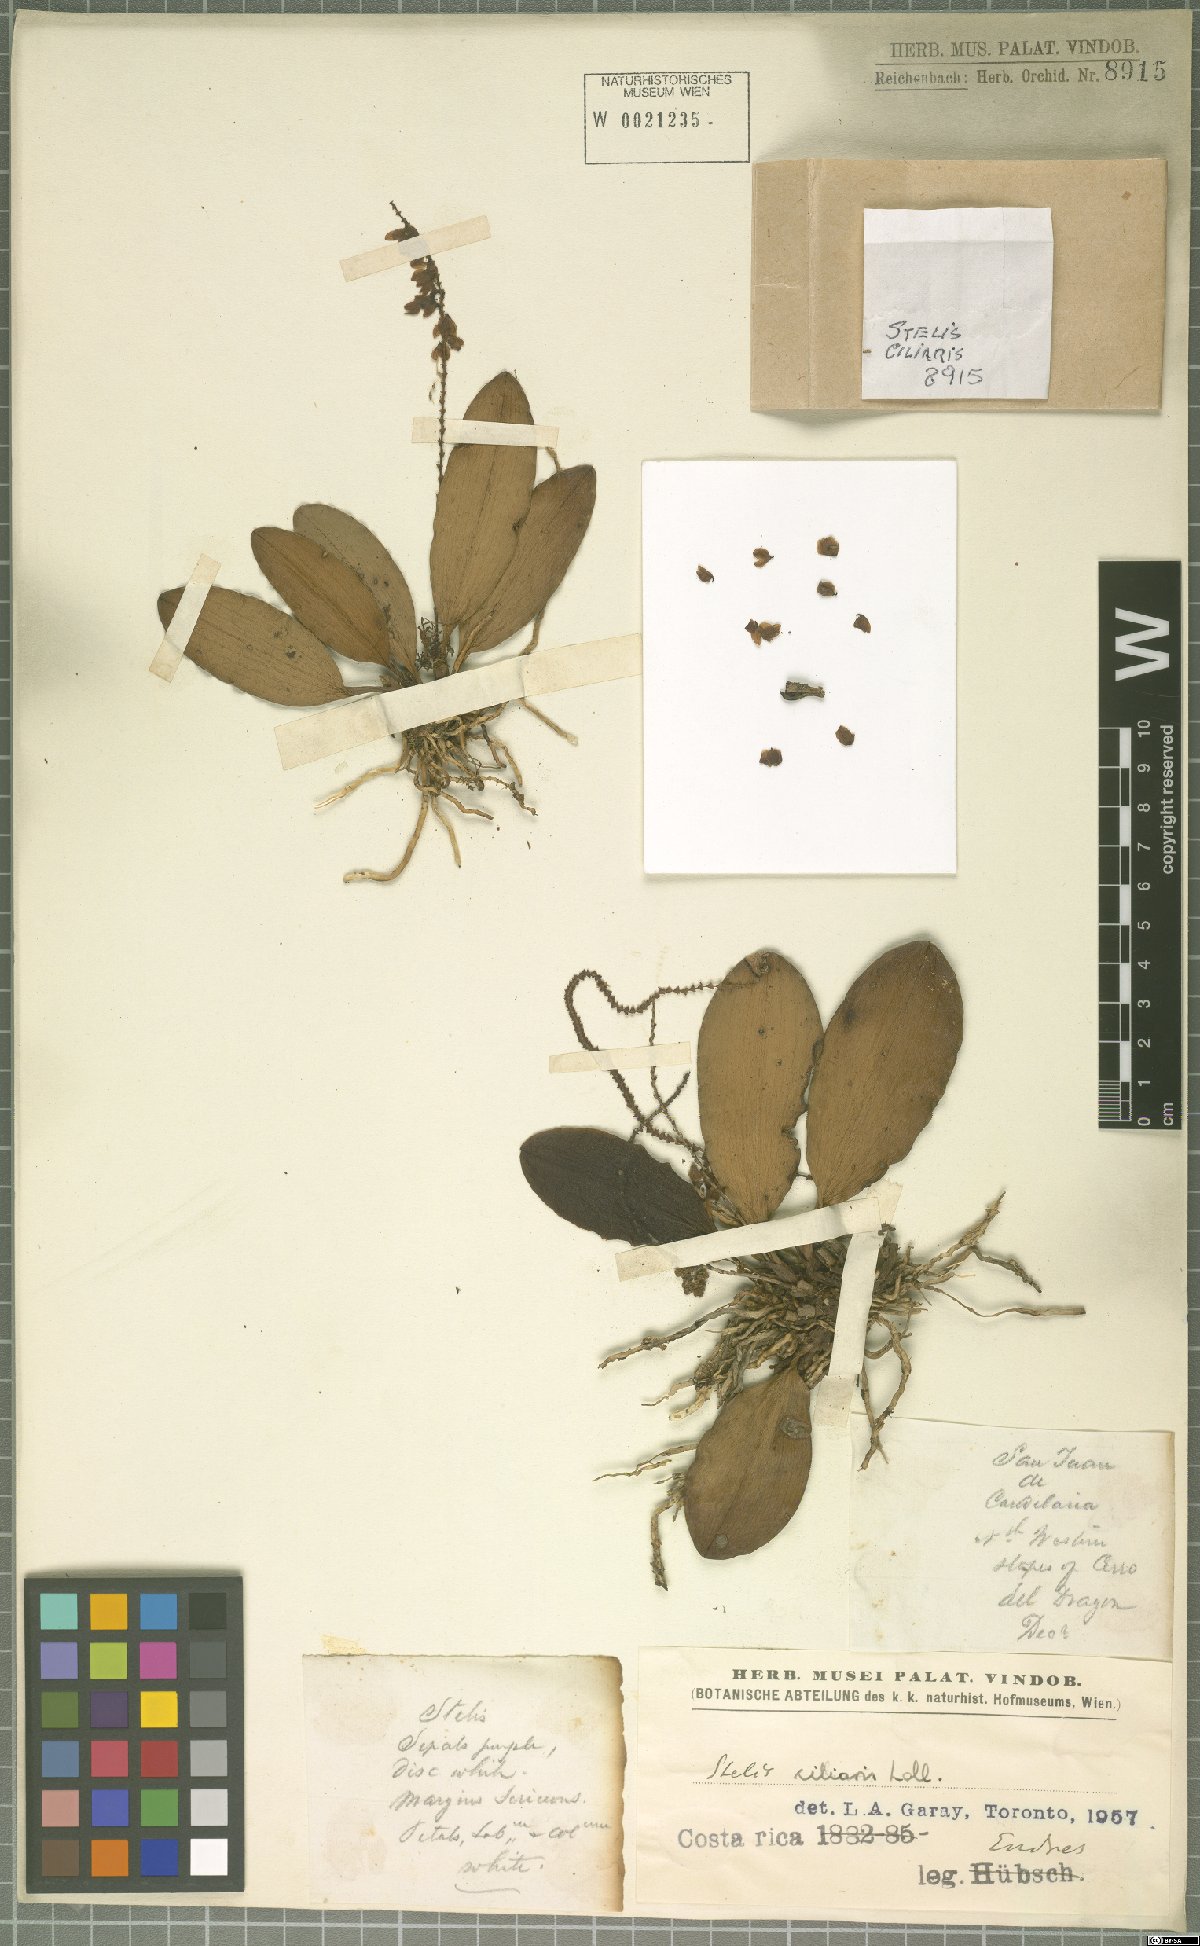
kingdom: Plantae
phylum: Tracheophyta
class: Liliopsida
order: Asparagales
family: Orchidaceae
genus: Stelis
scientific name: Stelis ciliaris
